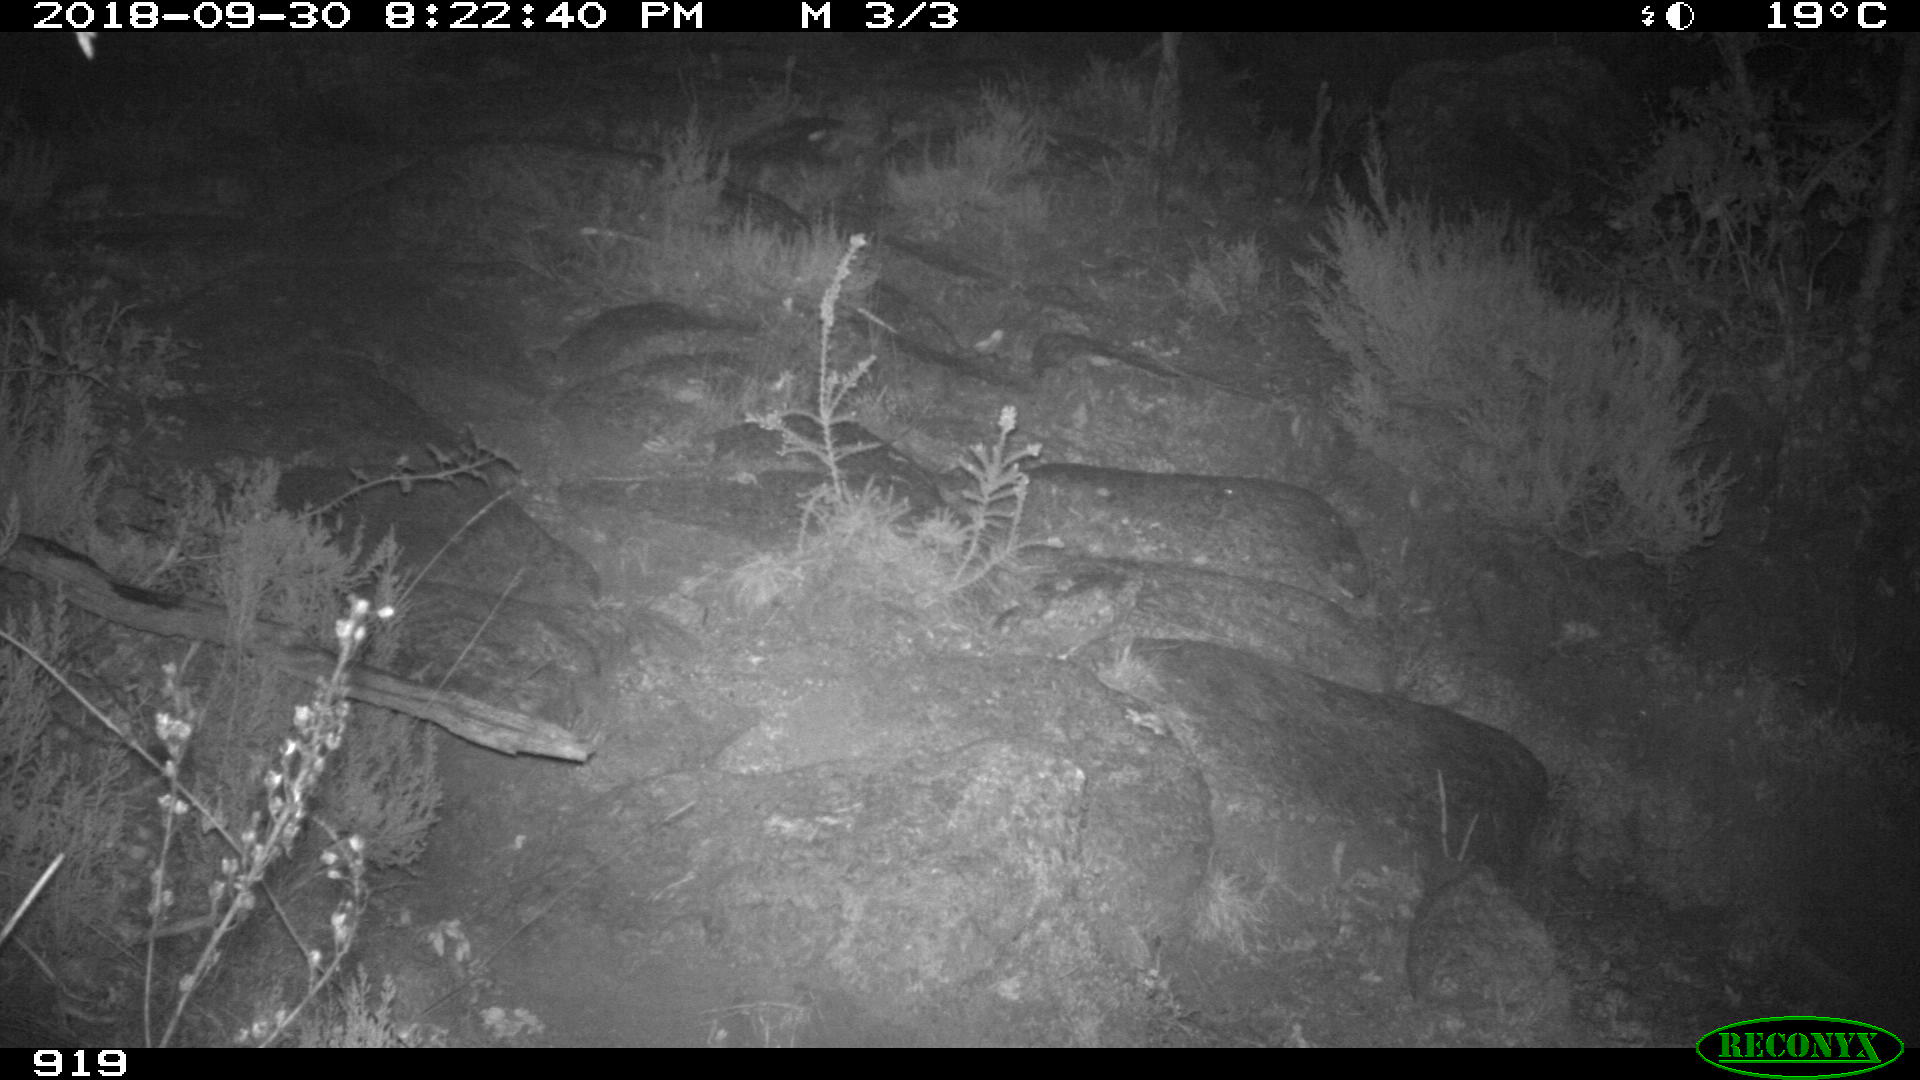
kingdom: Animalia
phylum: Chordata
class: Mammalia
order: Artiodactyla
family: Bovidae
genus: Bos
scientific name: Bos taurus
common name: Domesticated cattle
